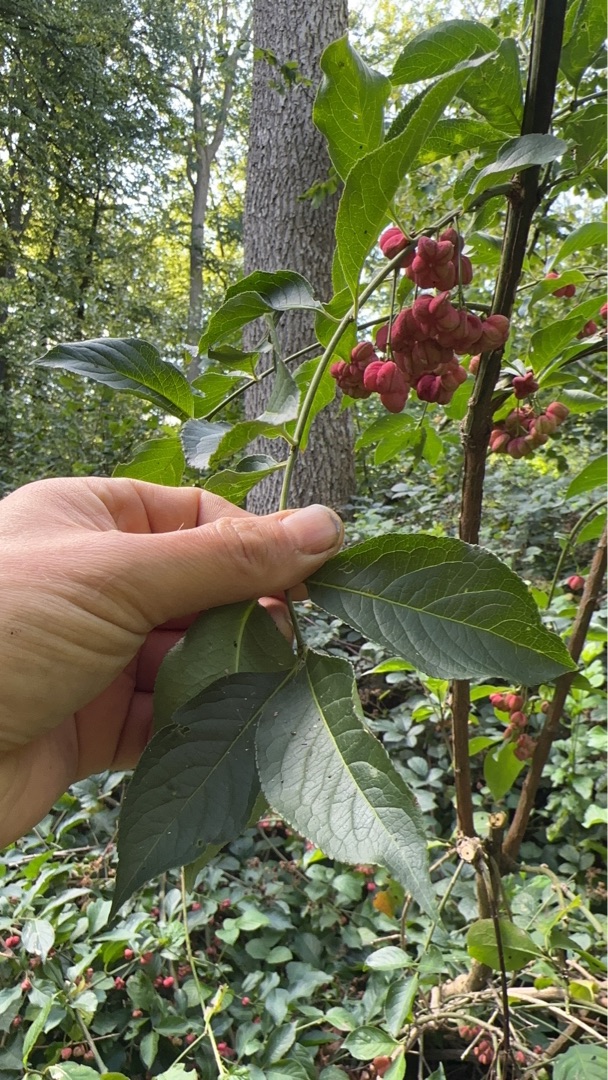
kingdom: Plantae
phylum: Tracheophyta
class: Magnoliopsida
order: Celastrales
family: Celastraceae
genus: Euonymus
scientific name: Euonymus europaeus
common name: Benved
